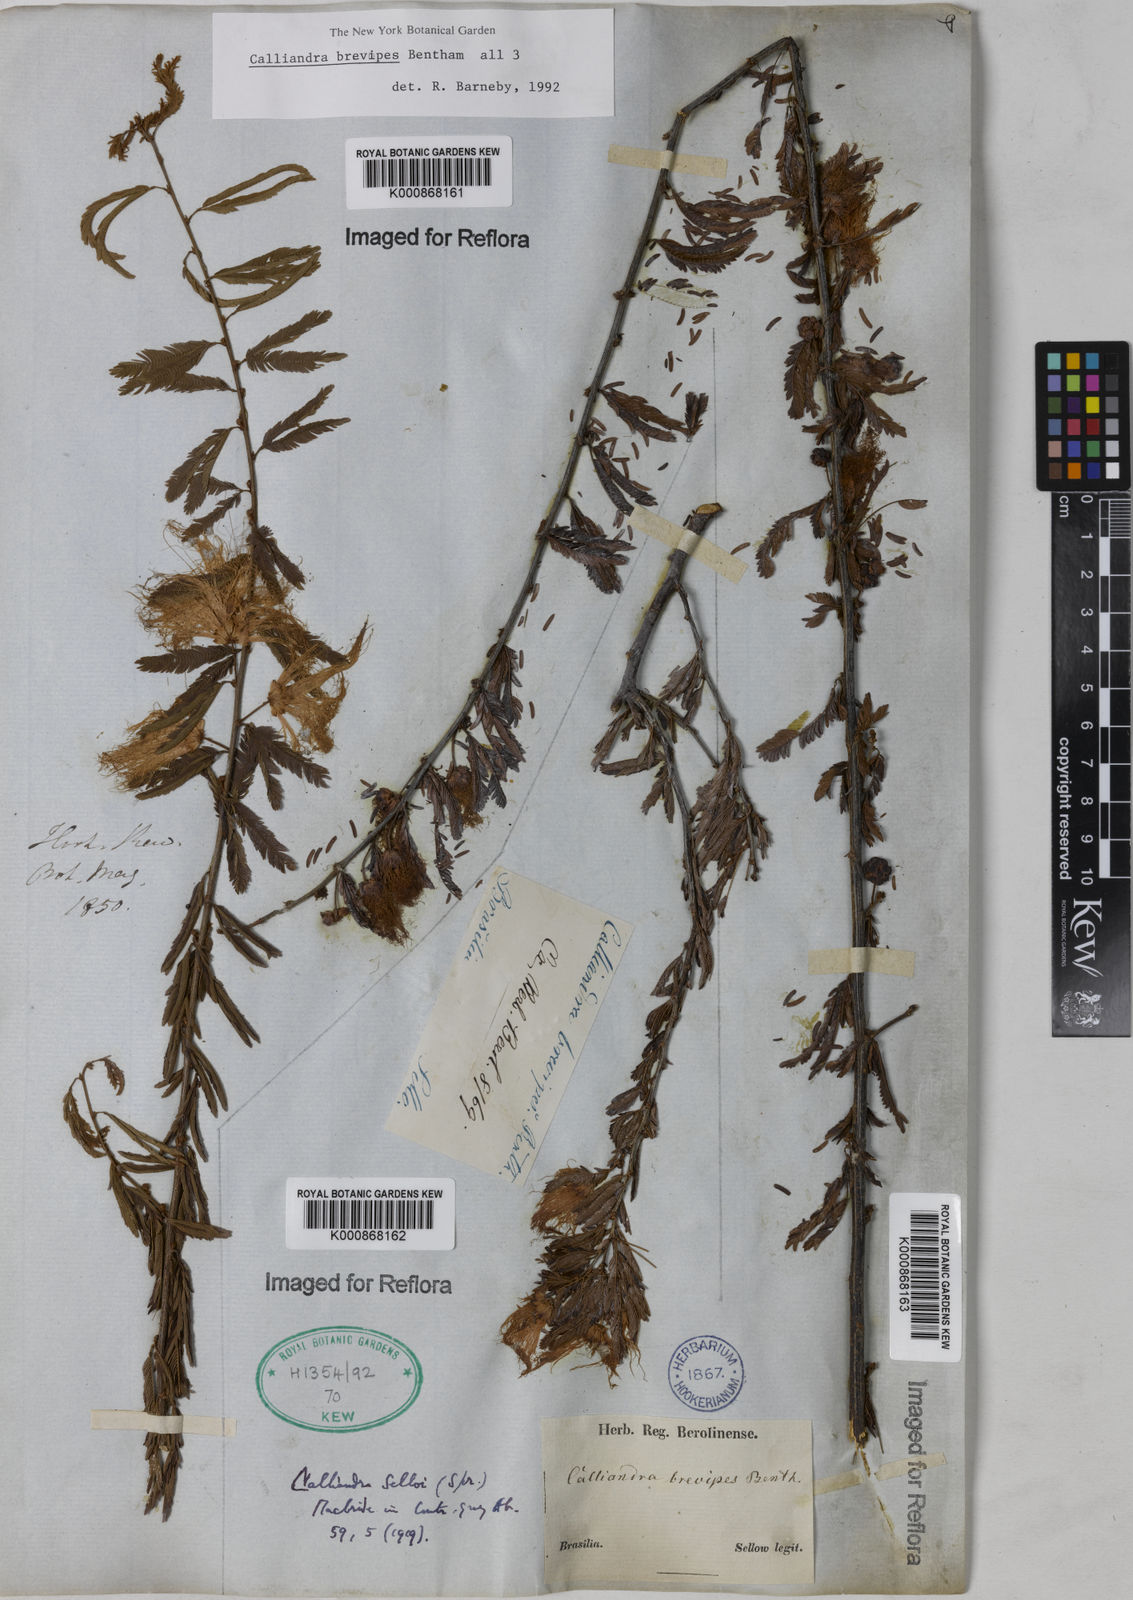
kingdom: Plantae
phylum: Tracheophyta
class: Magnoliopsida
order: Fabales
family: Fabaceae
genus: Calliandra
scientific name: Calliandra selloi
